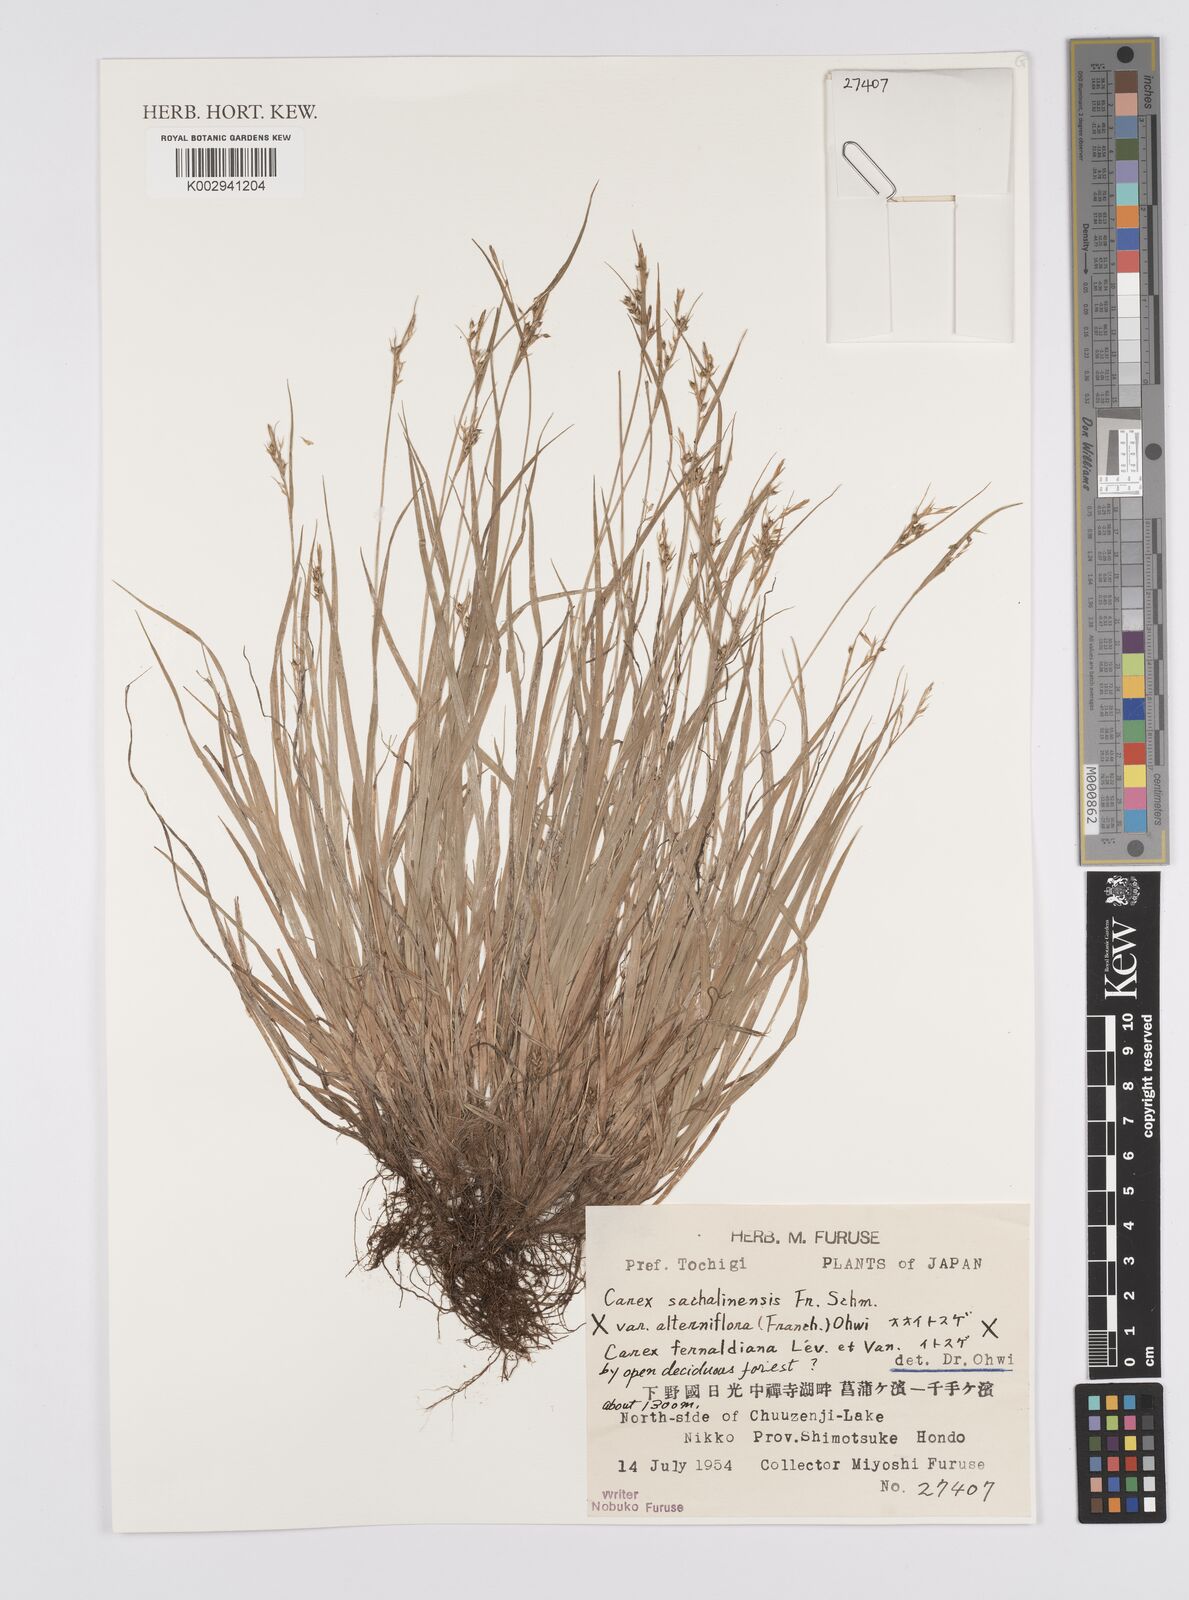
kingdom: Plantae
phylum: Tracheophyta
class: Liliopsida
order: Poales
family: Cyperaceae
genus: Carex
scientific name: Carex pisiformis
